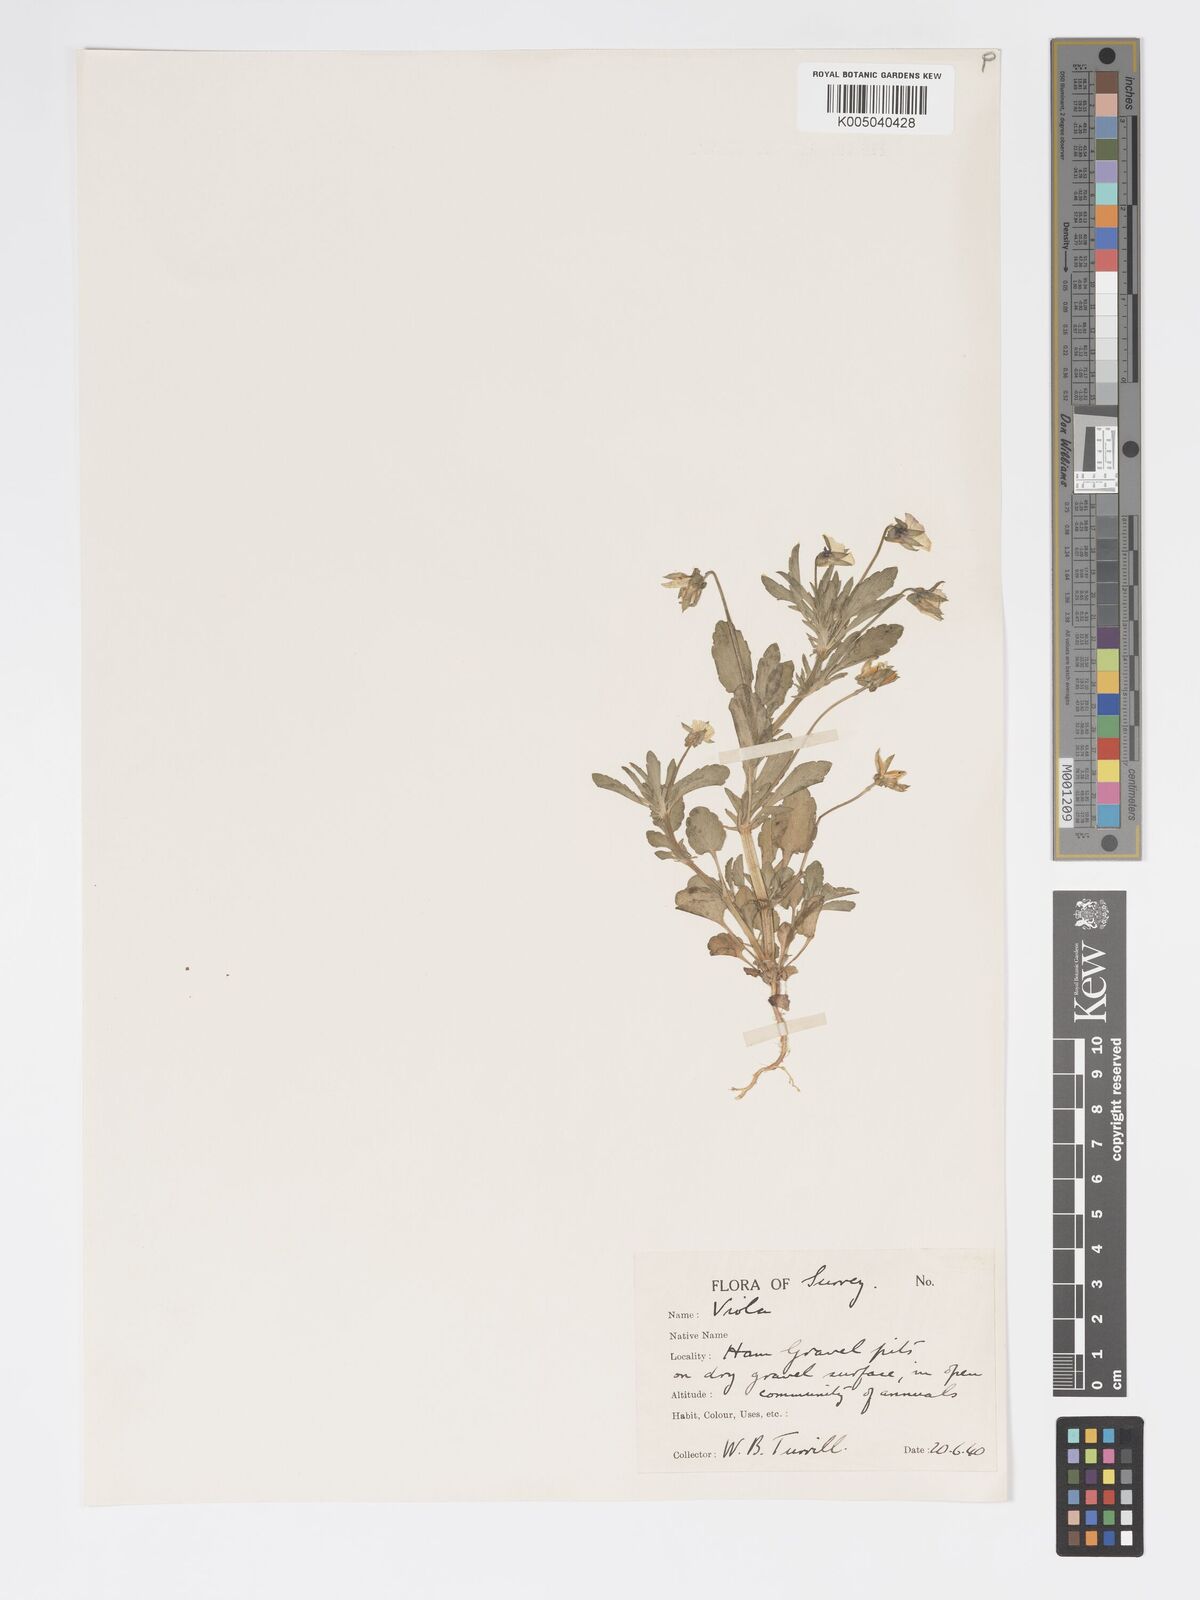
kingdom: Plantae
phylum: Tracheophyta
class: Magnoliopsida
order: Malpighiales
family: Violaceae
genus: Viola
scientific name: Viola arvensis
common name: Field pansy
